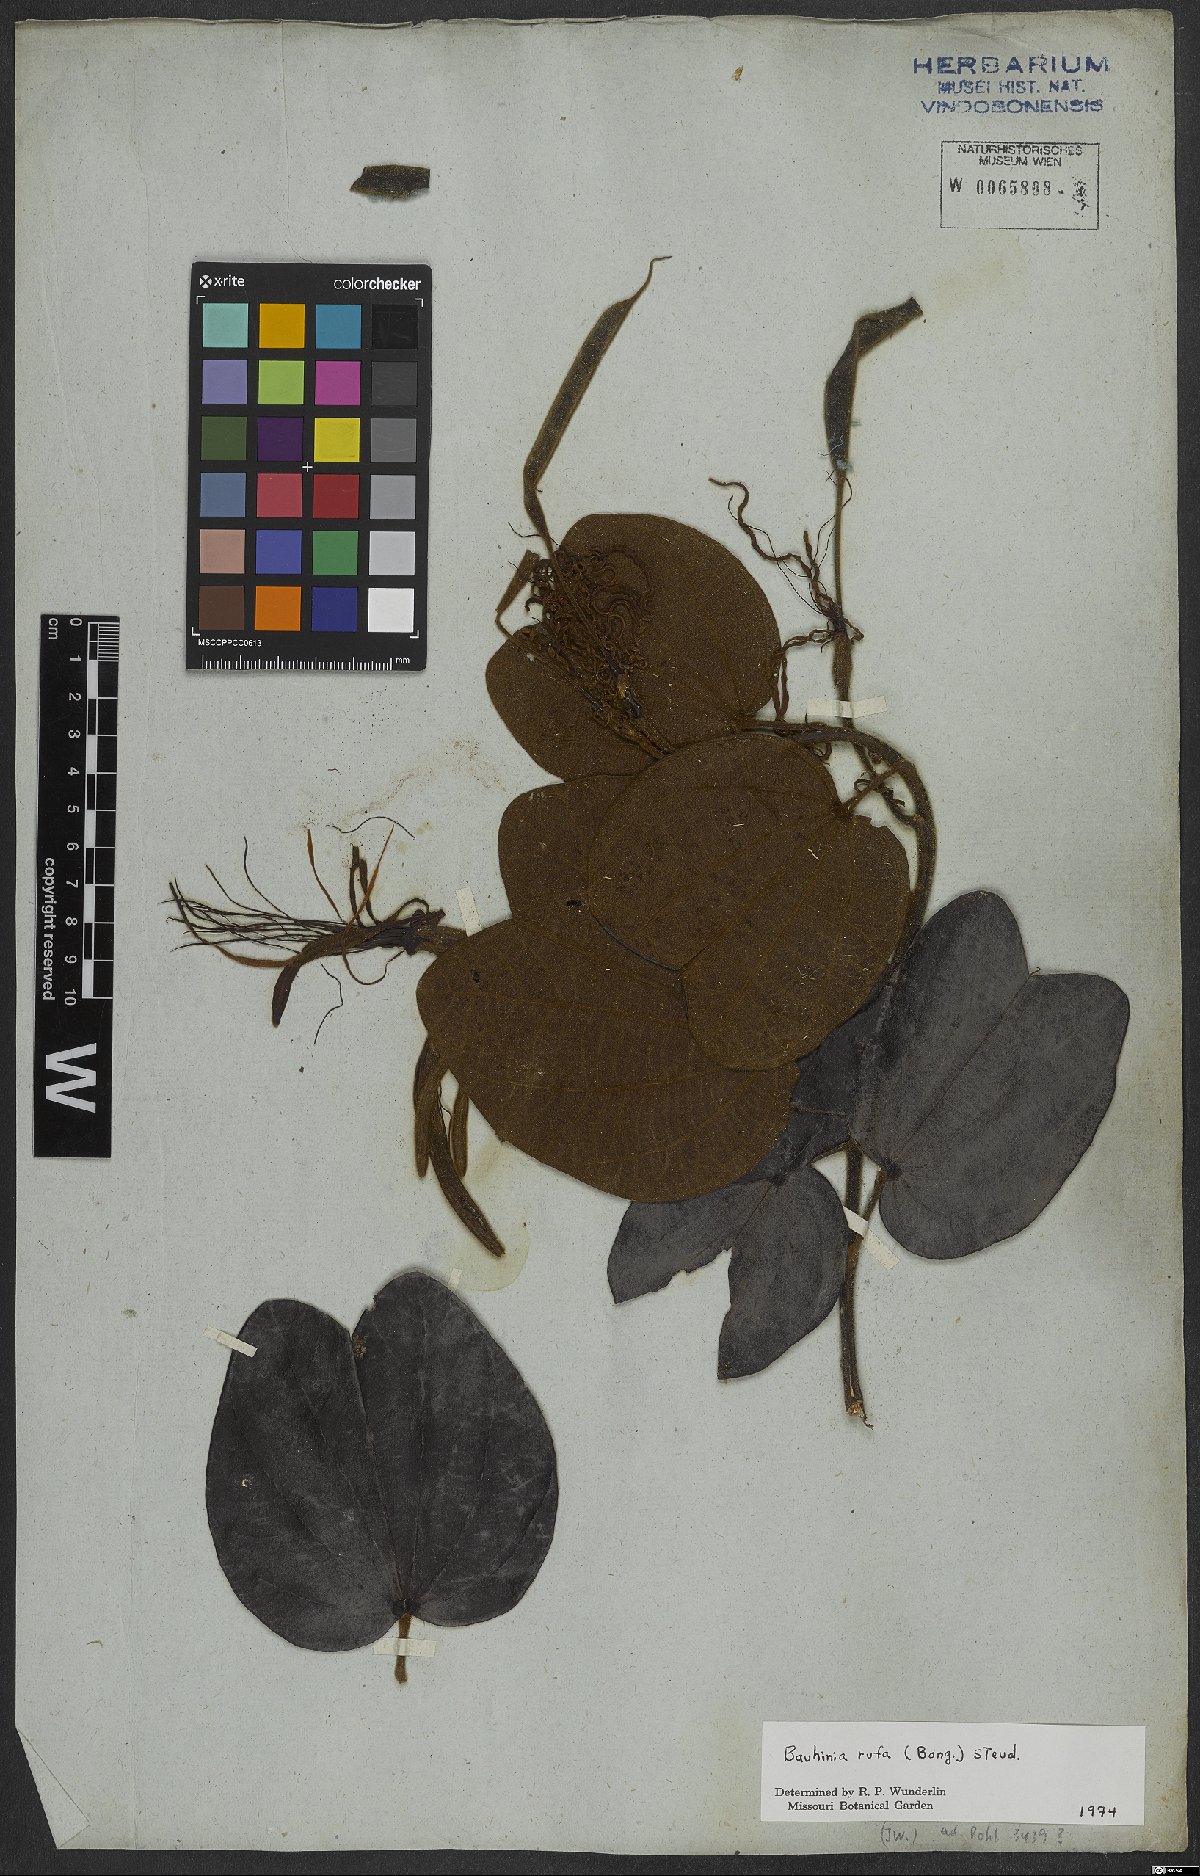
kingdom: Plantae
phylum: Tracheophyta
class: Magnoliopsida
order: Fabales
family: Fabaceae
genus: Bauhinia
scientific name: Bauhinia rufa
